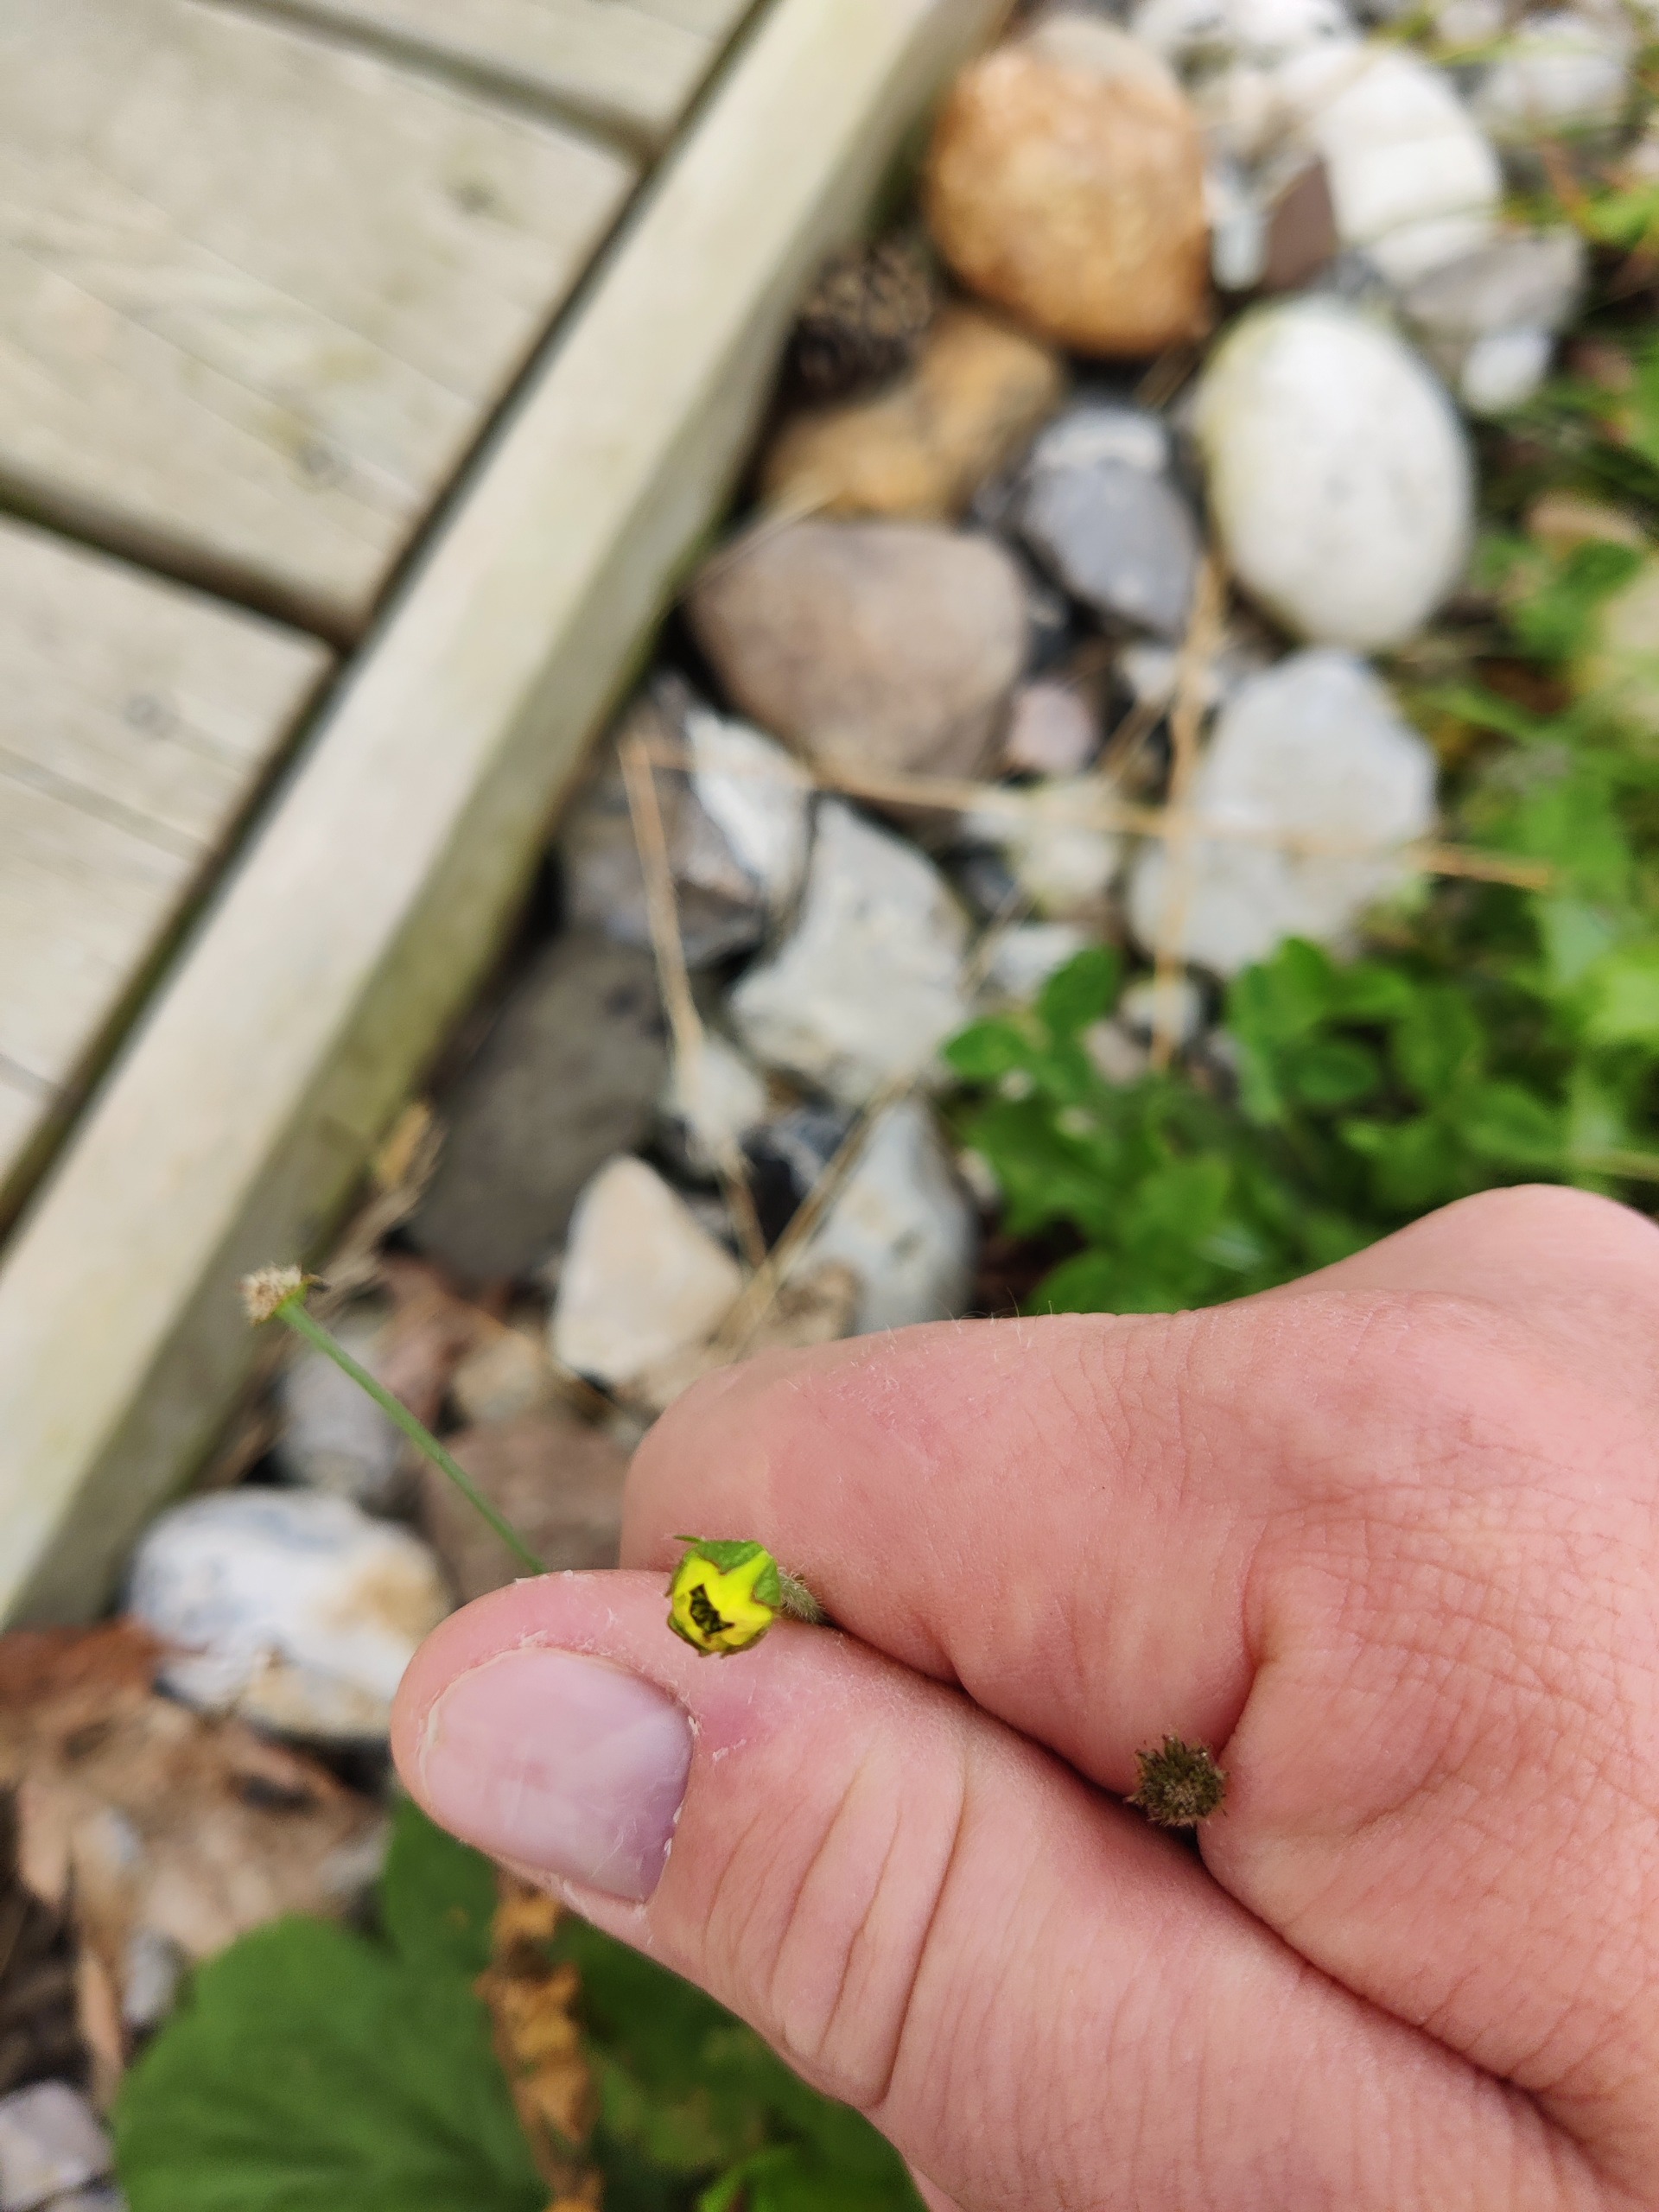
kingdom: Plantae
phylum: Tracheophyta
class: Magnoliopsida
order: Rosales
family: Rosaceae
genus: Geum
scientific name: Geum macrophyllum
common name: Amerikansk nellikerod
